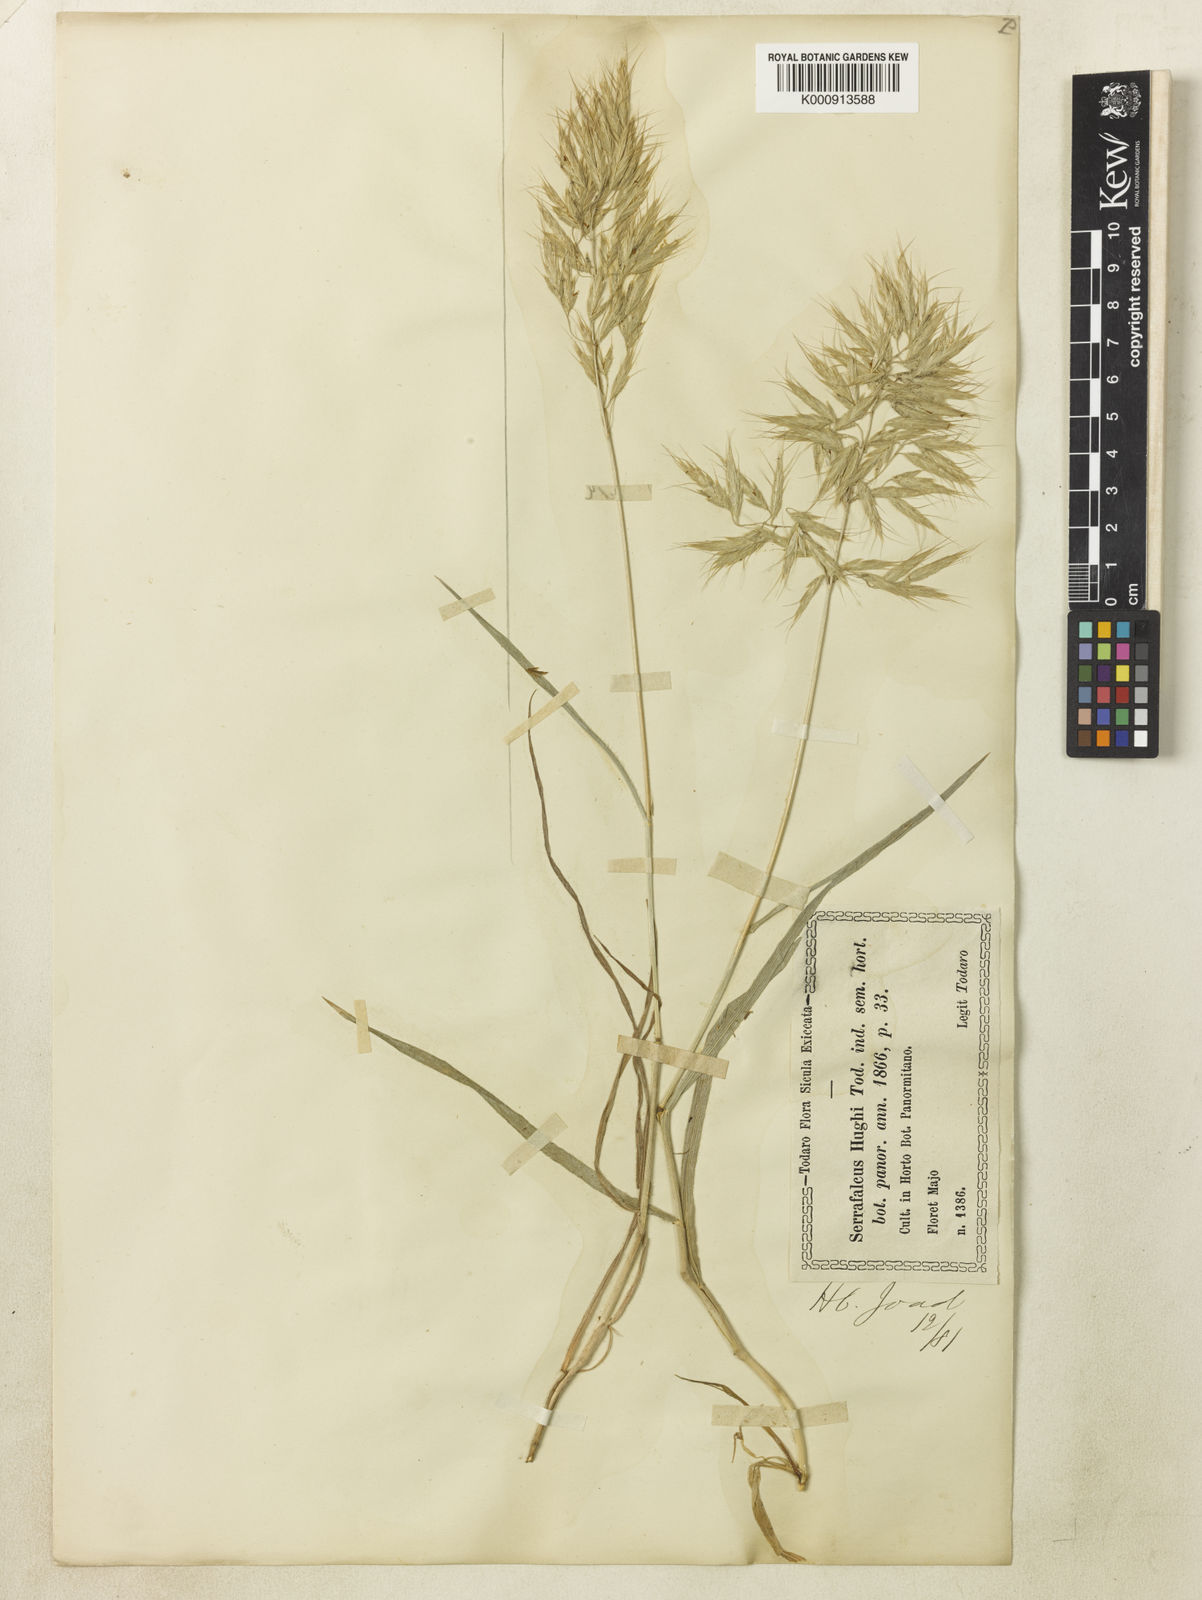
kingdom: Plantae
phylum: Tracheophyta
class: Liliopsida
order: Poales
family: Poaceae
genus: Bromus
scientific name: Bromus intermedius
